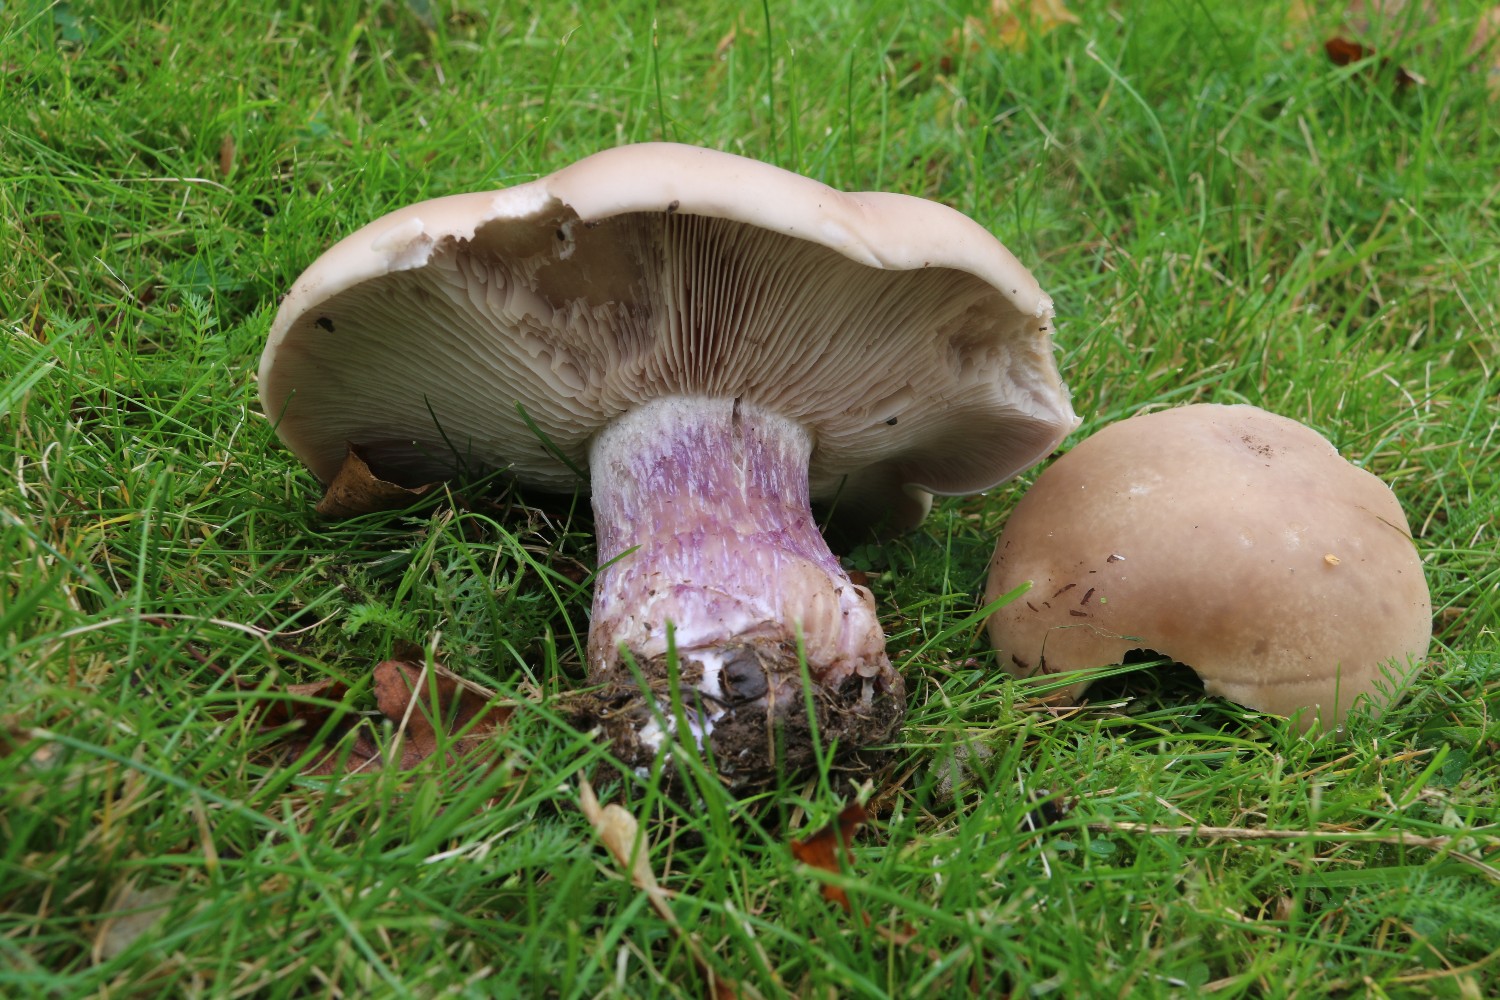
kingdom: Fungi
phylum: Basidiomycota
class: Agaricomycetes
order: Agaricales
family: Tricholomataceae
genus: Lepista
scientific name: Lepista personata
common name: bleg hekseringshat
